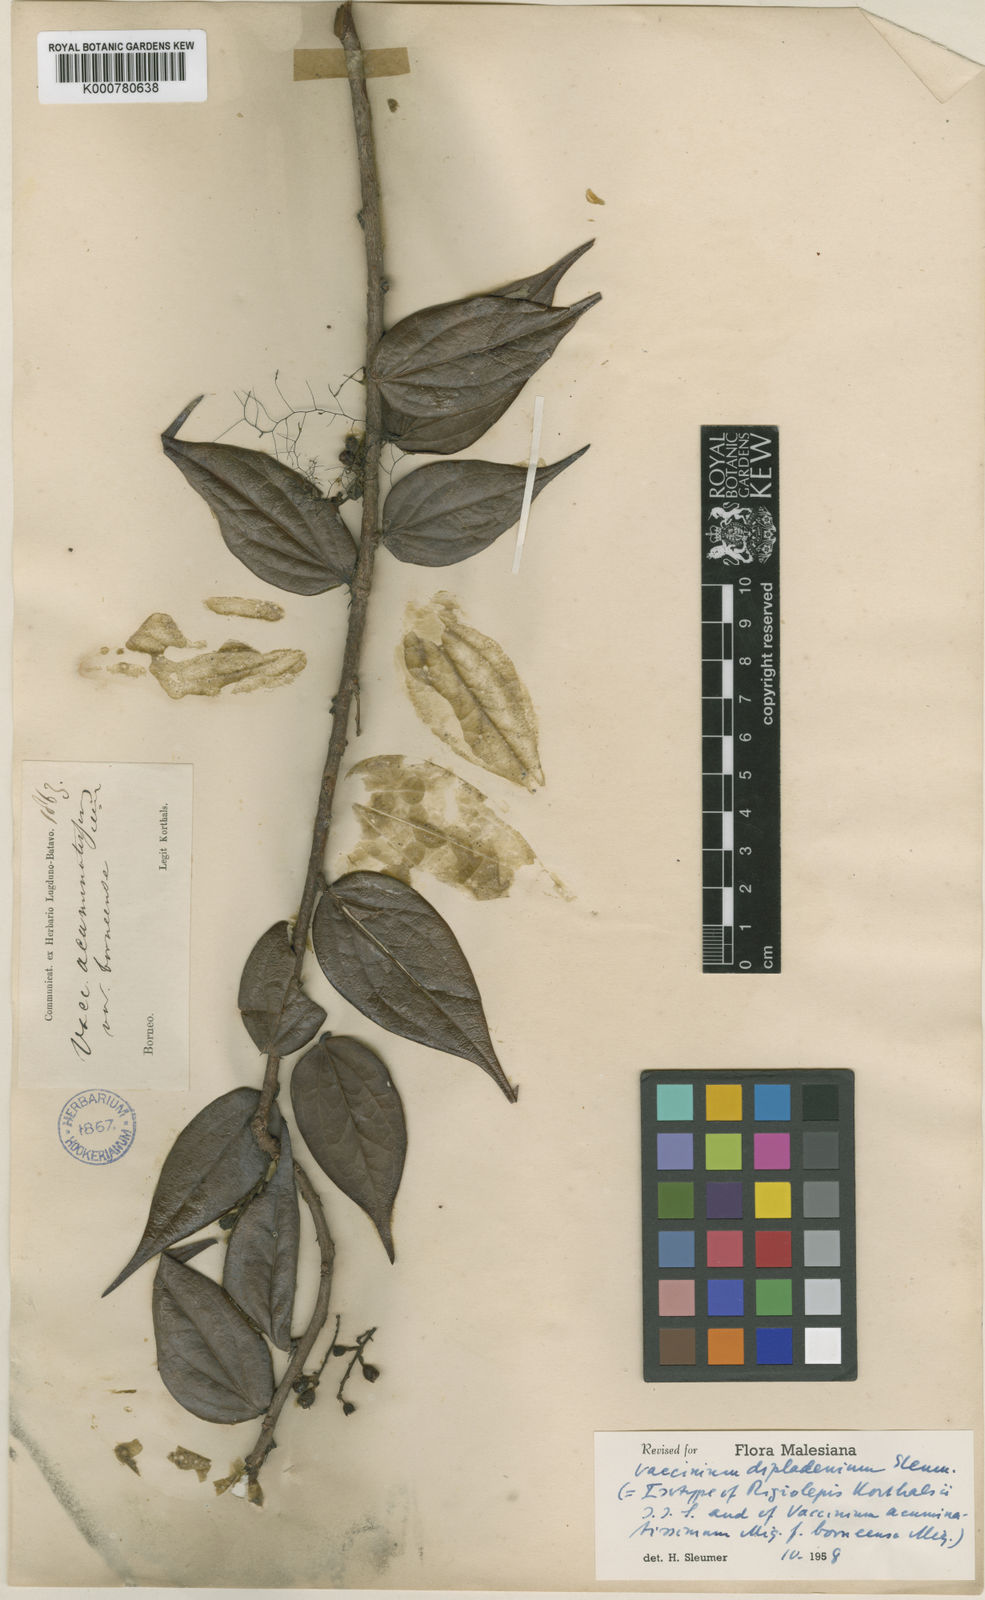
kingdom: Plantae
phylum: Tracheophyta
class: Magnoliopsida
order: Ericales
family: Ericaceae
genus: Rigiolepis
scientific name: Rigiolepis moultonii
